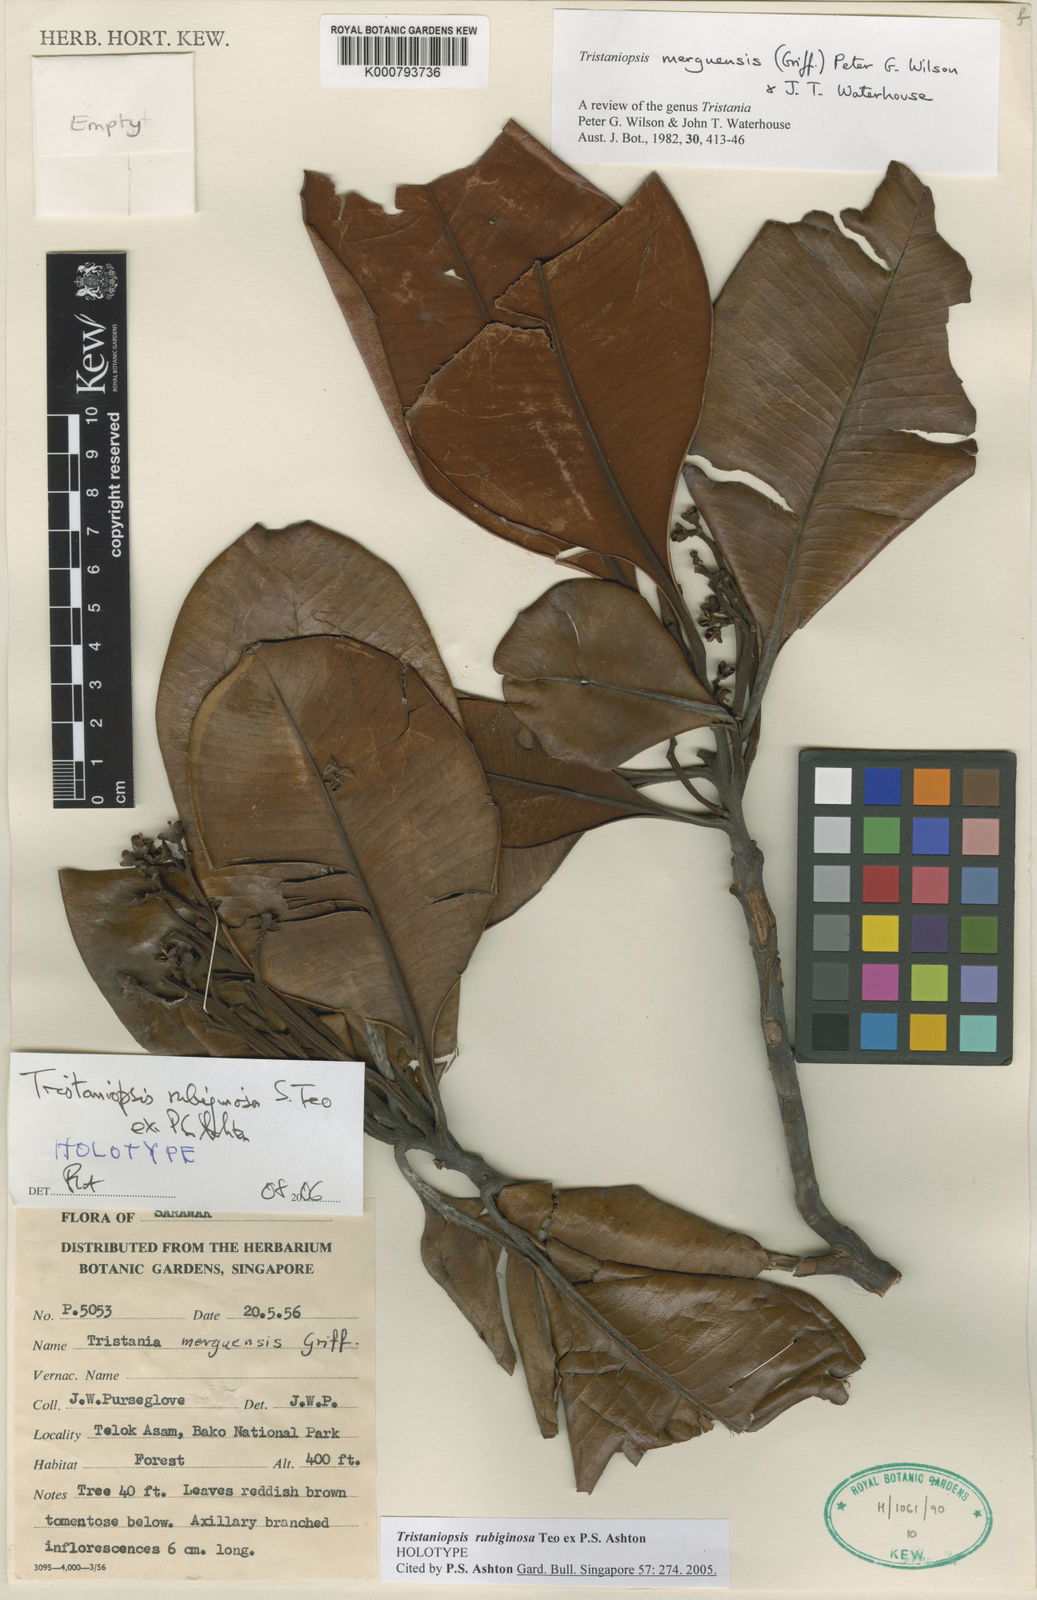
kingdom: Plantae
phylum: Tracheophyta
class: Magnoliopsida
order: Myrtales
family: Myrtaceae
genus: Tristaniopsis
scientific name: Tristaniopsis rubiginosa
